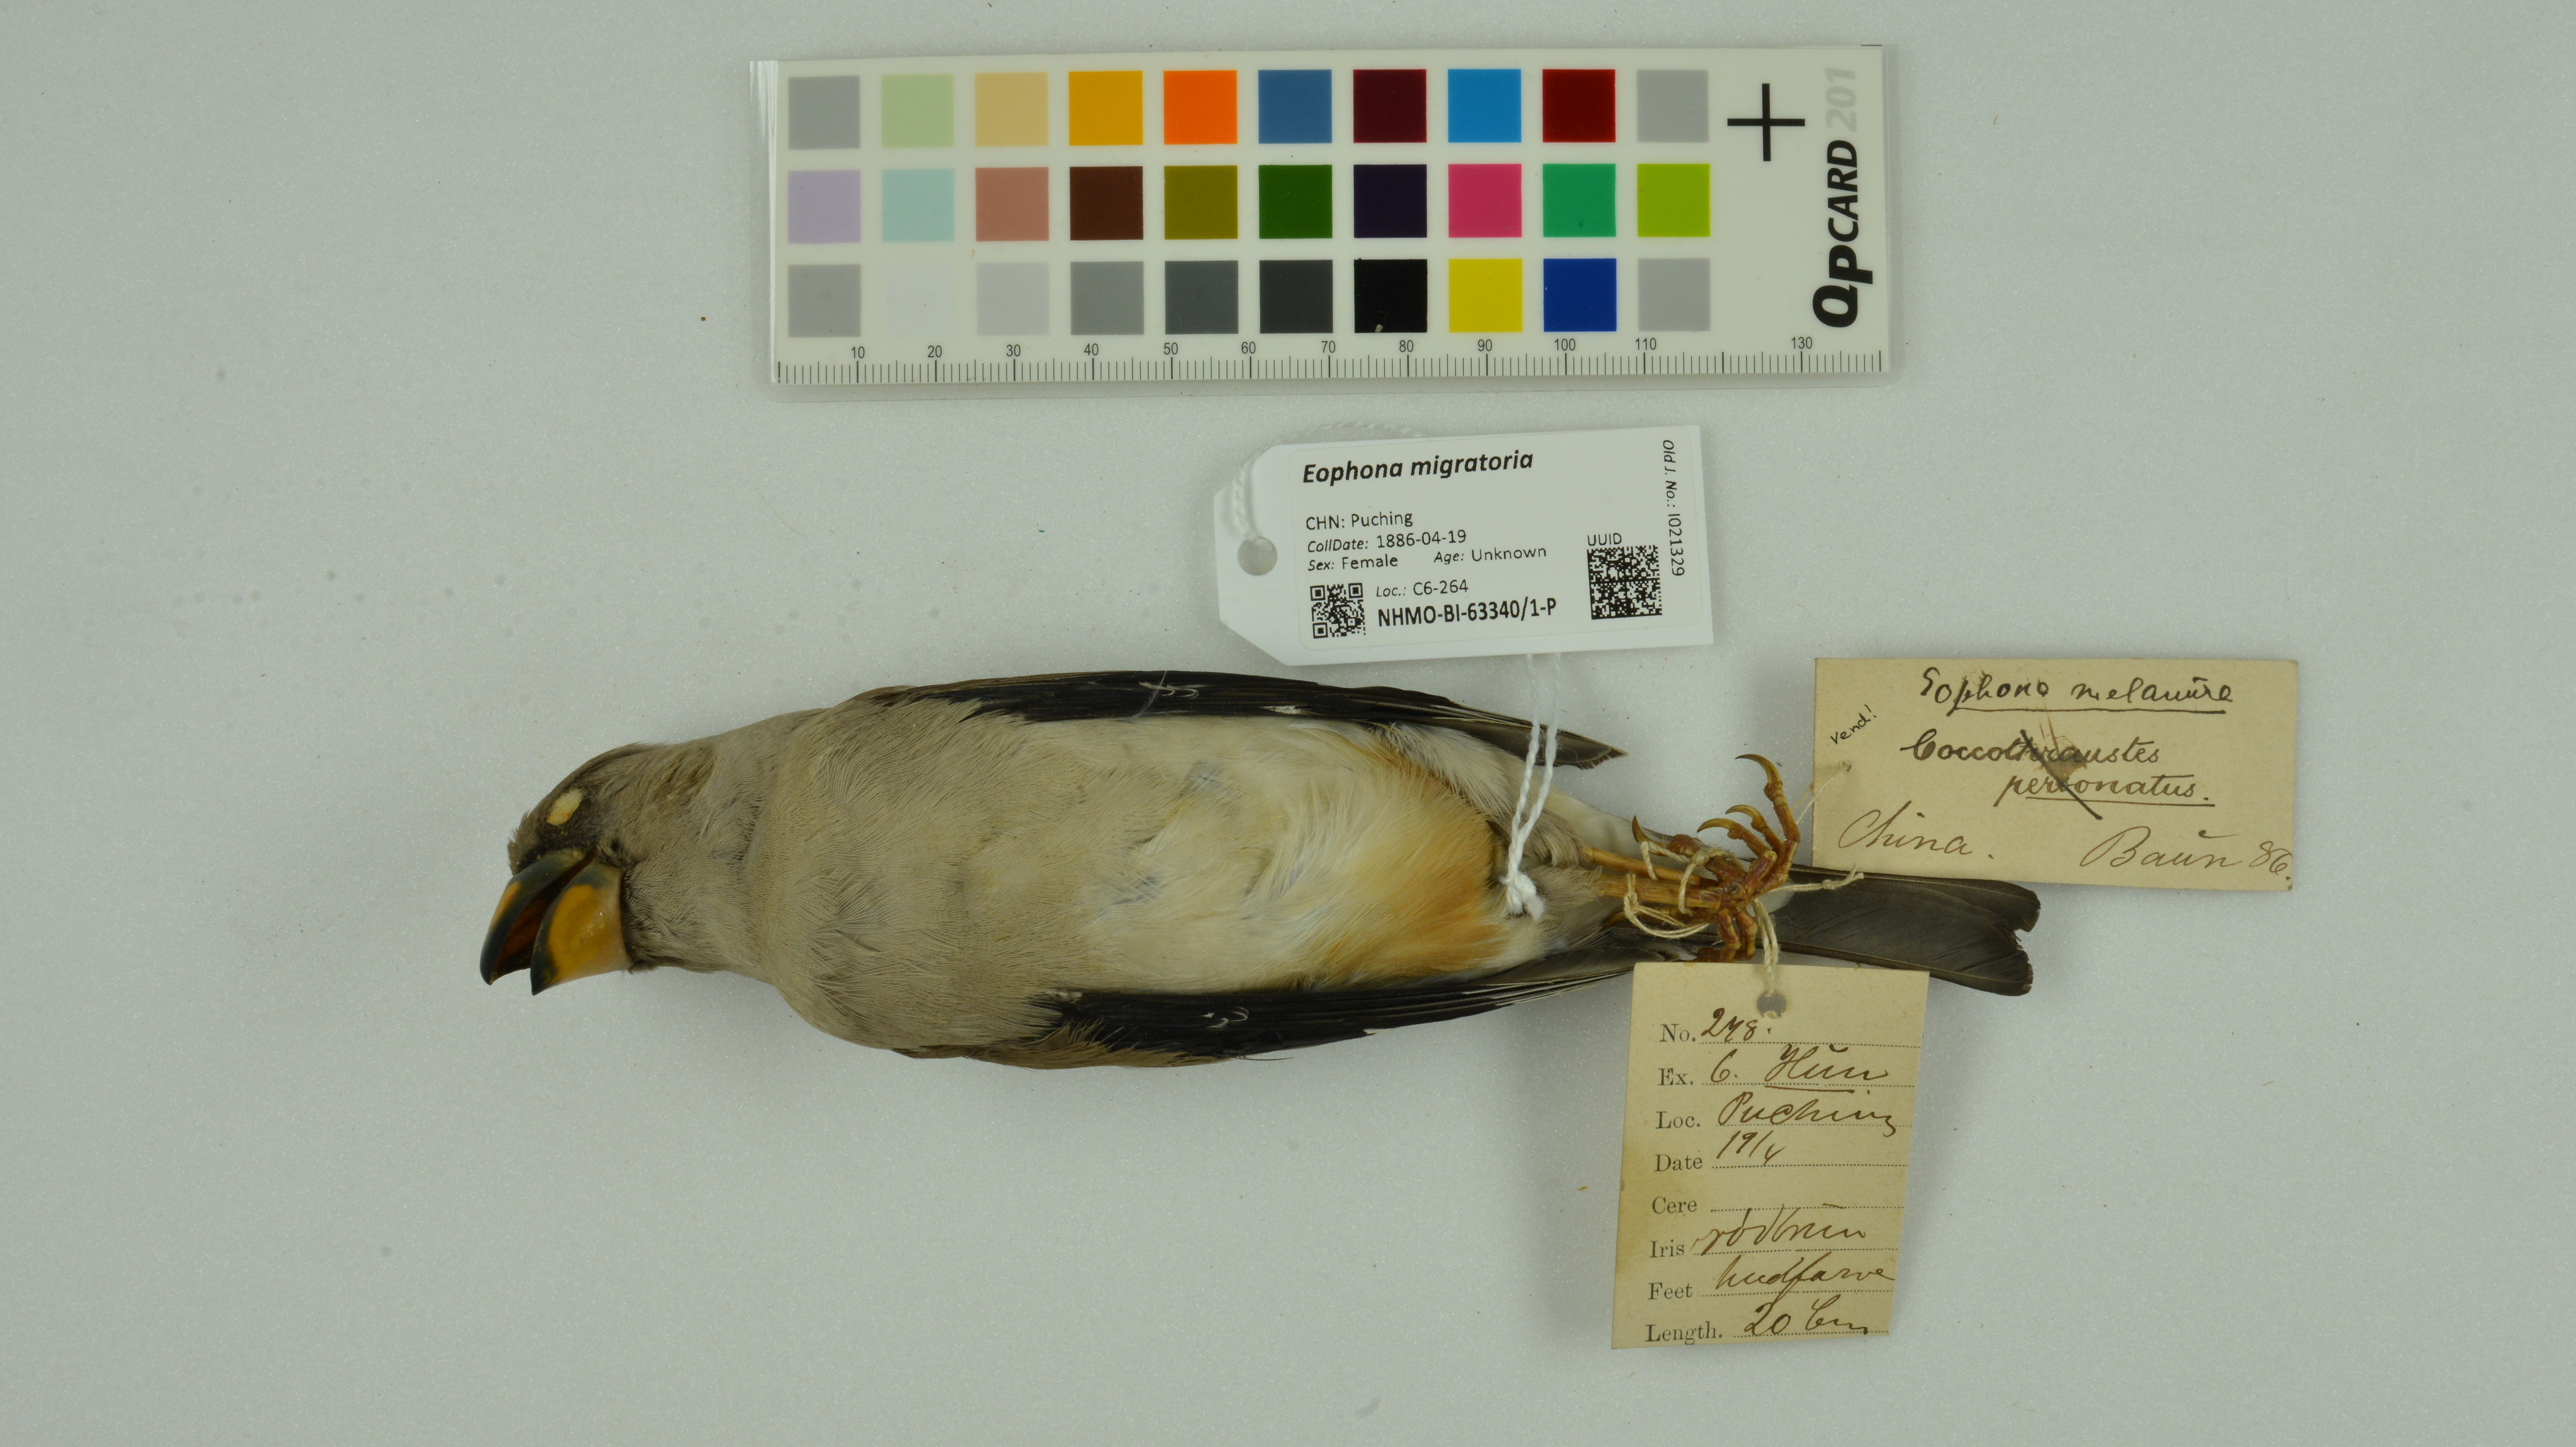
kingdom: Animalia
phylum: Chordata
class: Aves
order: Passeriformes
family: Fringillidae
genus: Eophona
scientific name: Eophona migratoria
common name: Yellow-billed grosbeak
